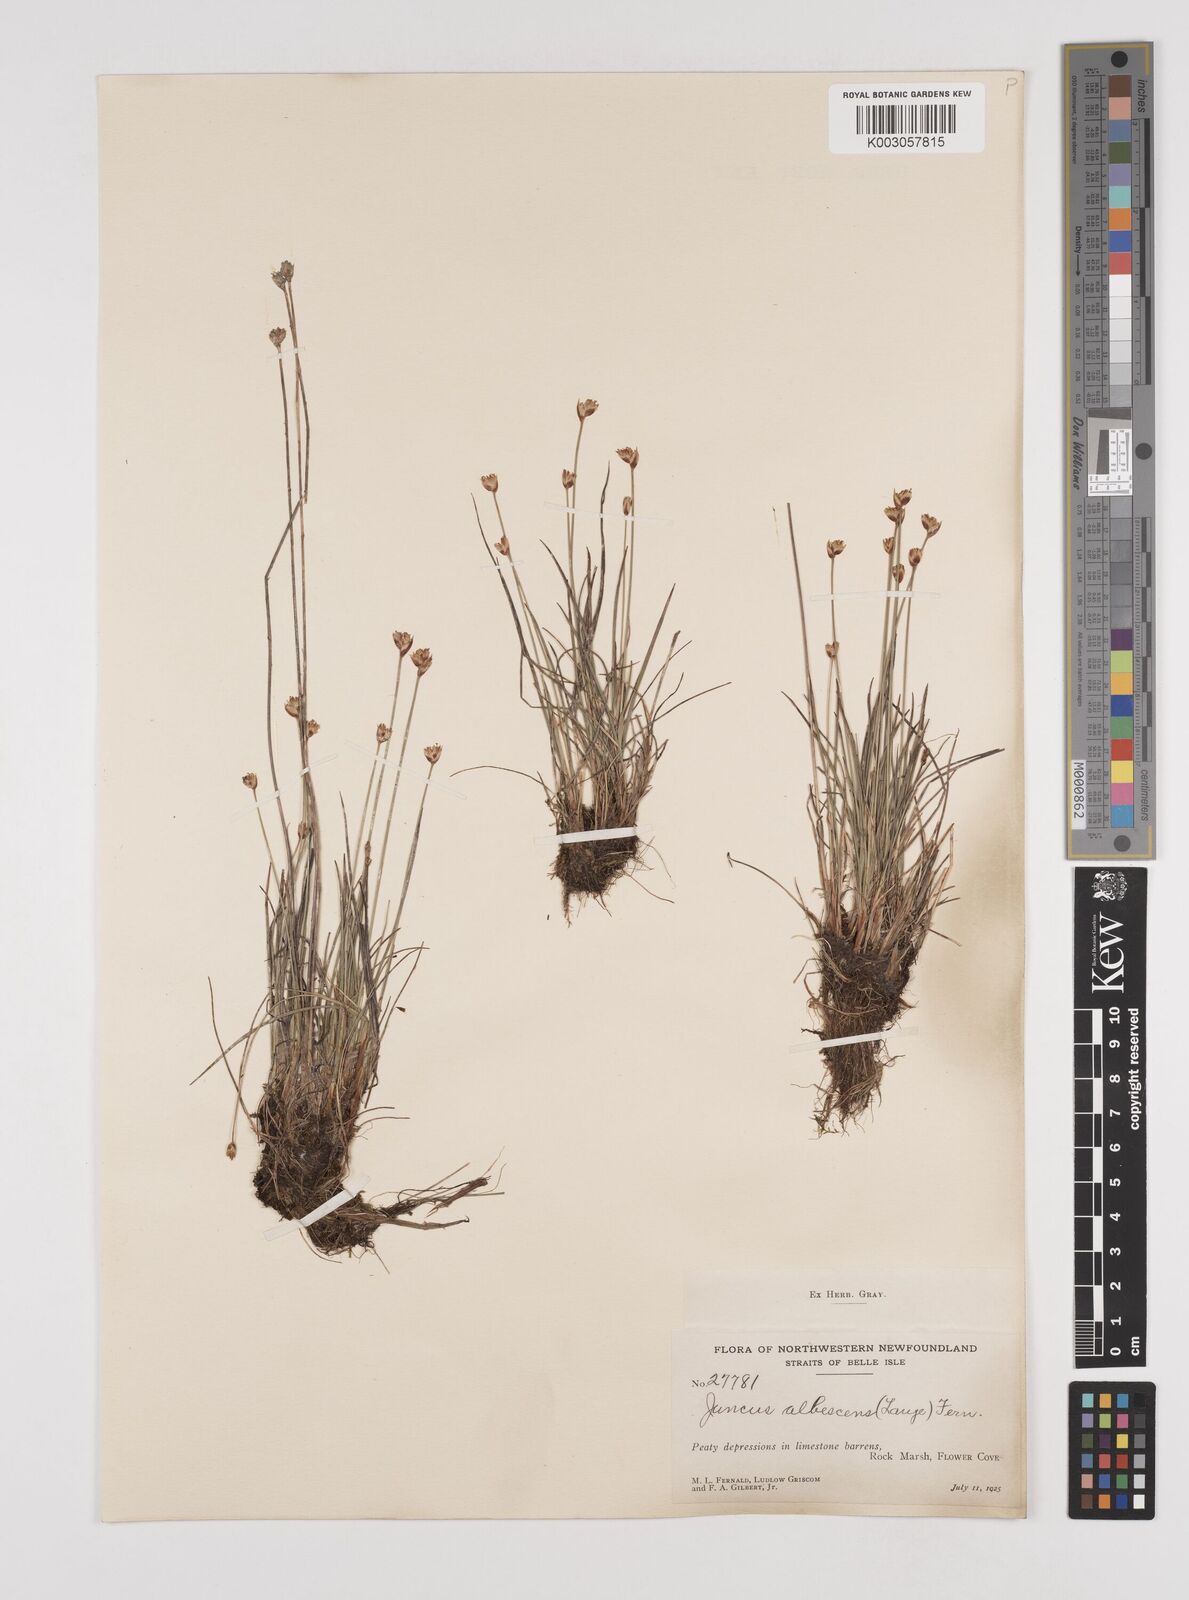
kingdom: Plantae
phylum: Tracheophyta
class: Liliopsida
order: Poales
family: Juncaceae
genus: Juncus
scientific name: Juncus albescens
